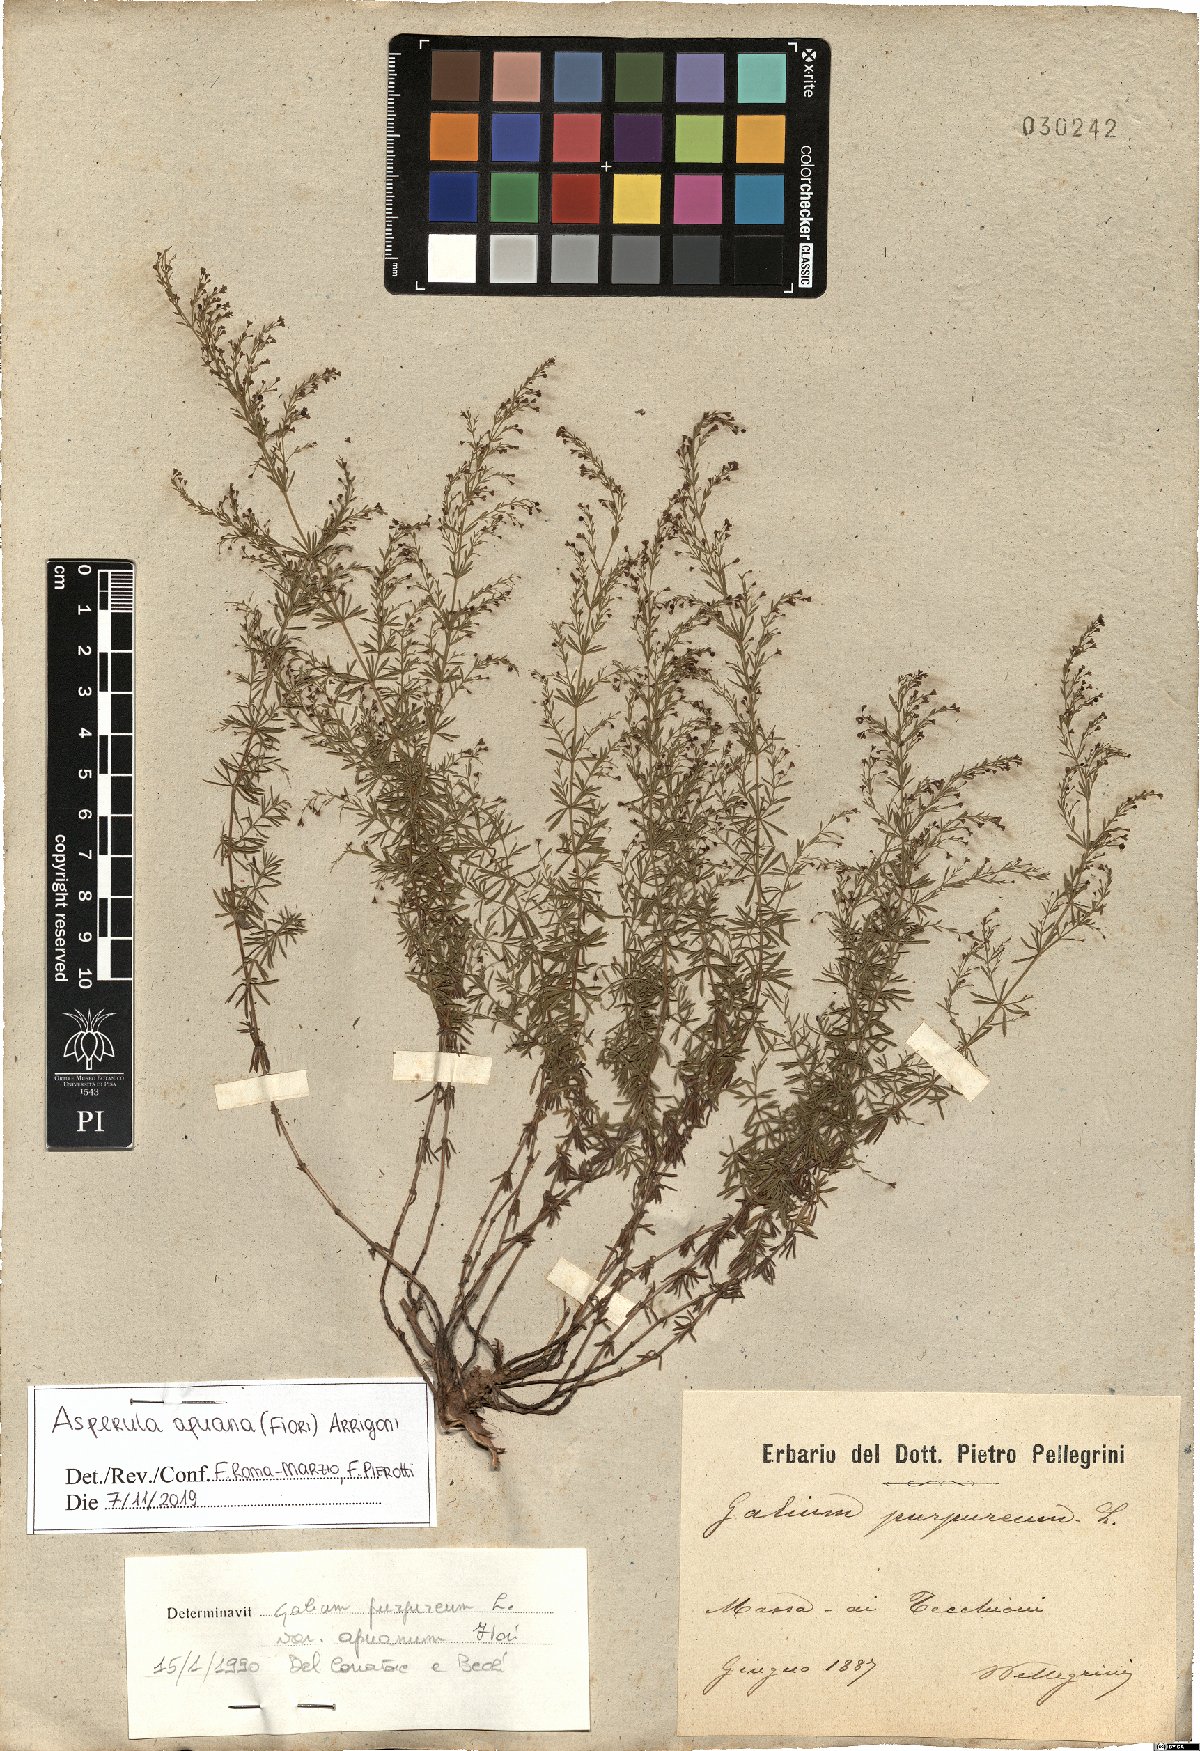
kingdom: Plantae
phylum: Tracheophyta
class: Magnoliopsida
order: Gentianales
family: Rubiaceae
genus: Thliphthisa
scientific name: Thliphthisa apuana
